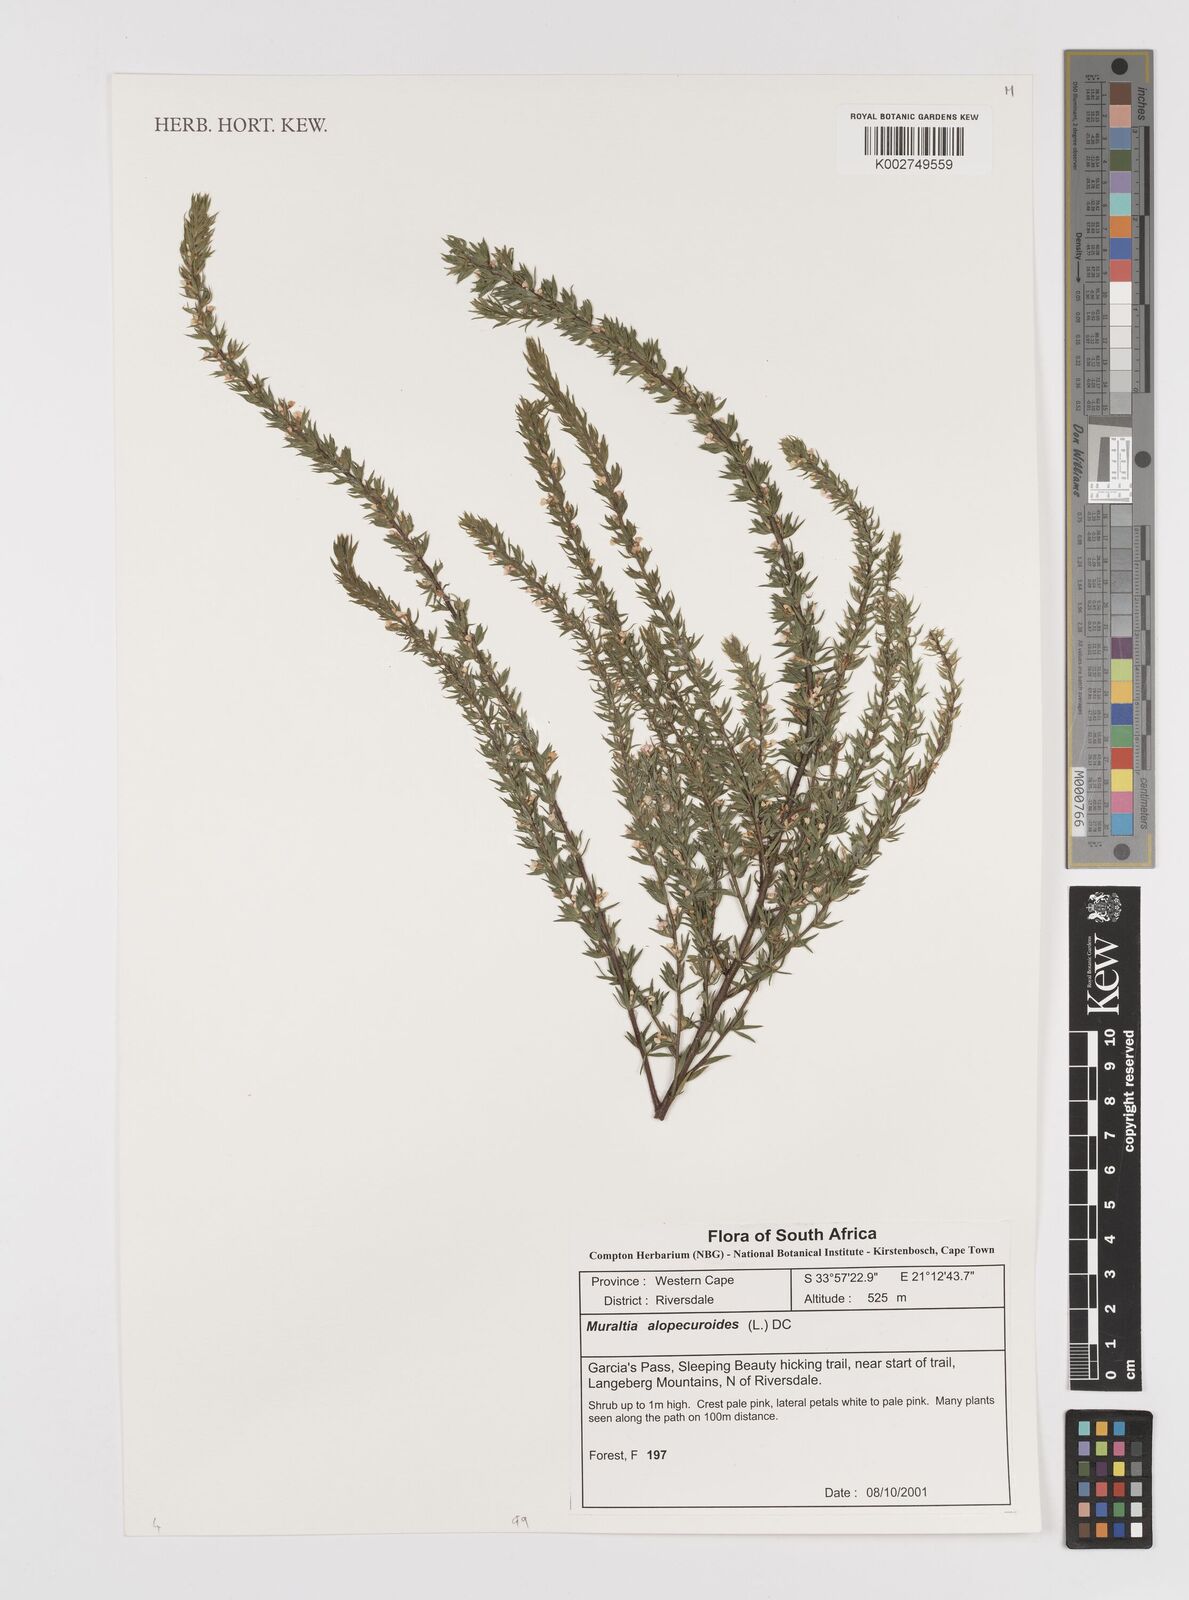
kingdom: Plantae
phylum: Tracheophyta
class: Magnoliopsida
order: Fabales
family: Polygalaceae
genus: Muraltia
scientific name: Muraltia alopecuroides
